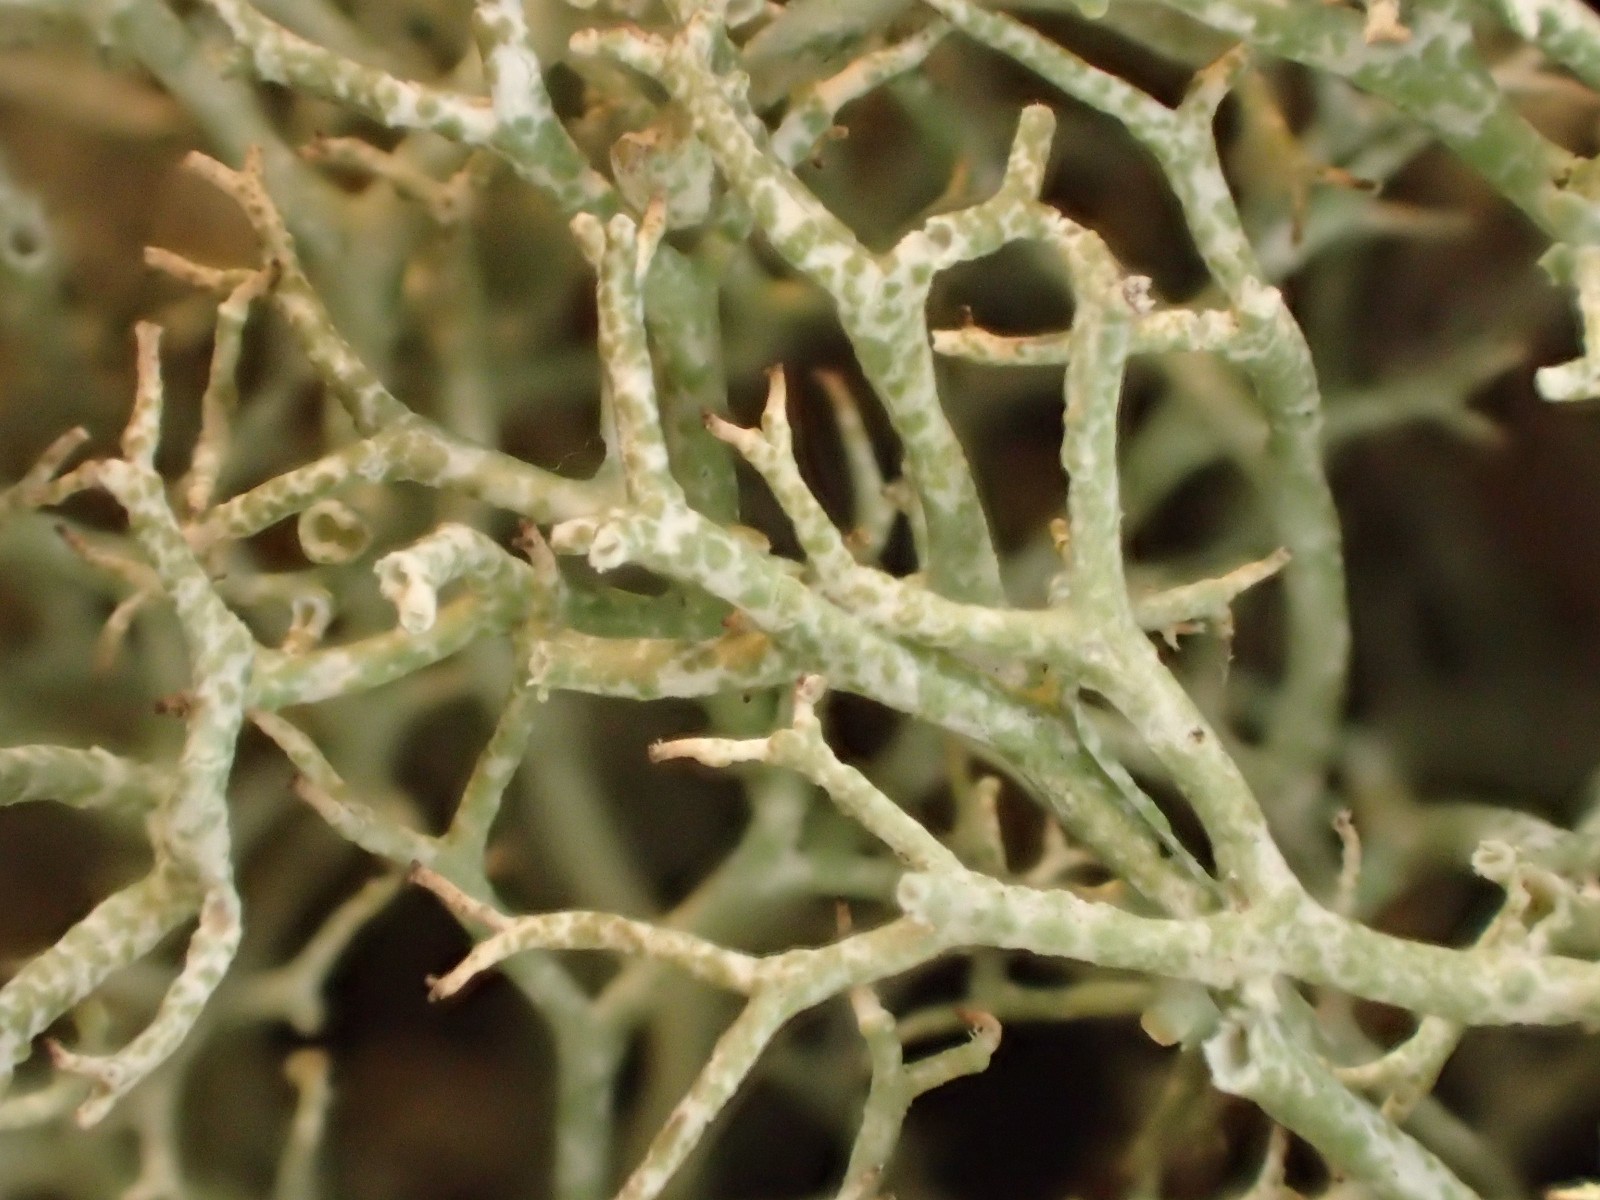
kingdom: Fungi
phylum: Ascomycota
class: Lecanoromycetes
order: Lecanorales
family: Cladoniaceae
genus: Cladonia
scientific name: Cladonia rangiformis
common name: spættet bægerlav
